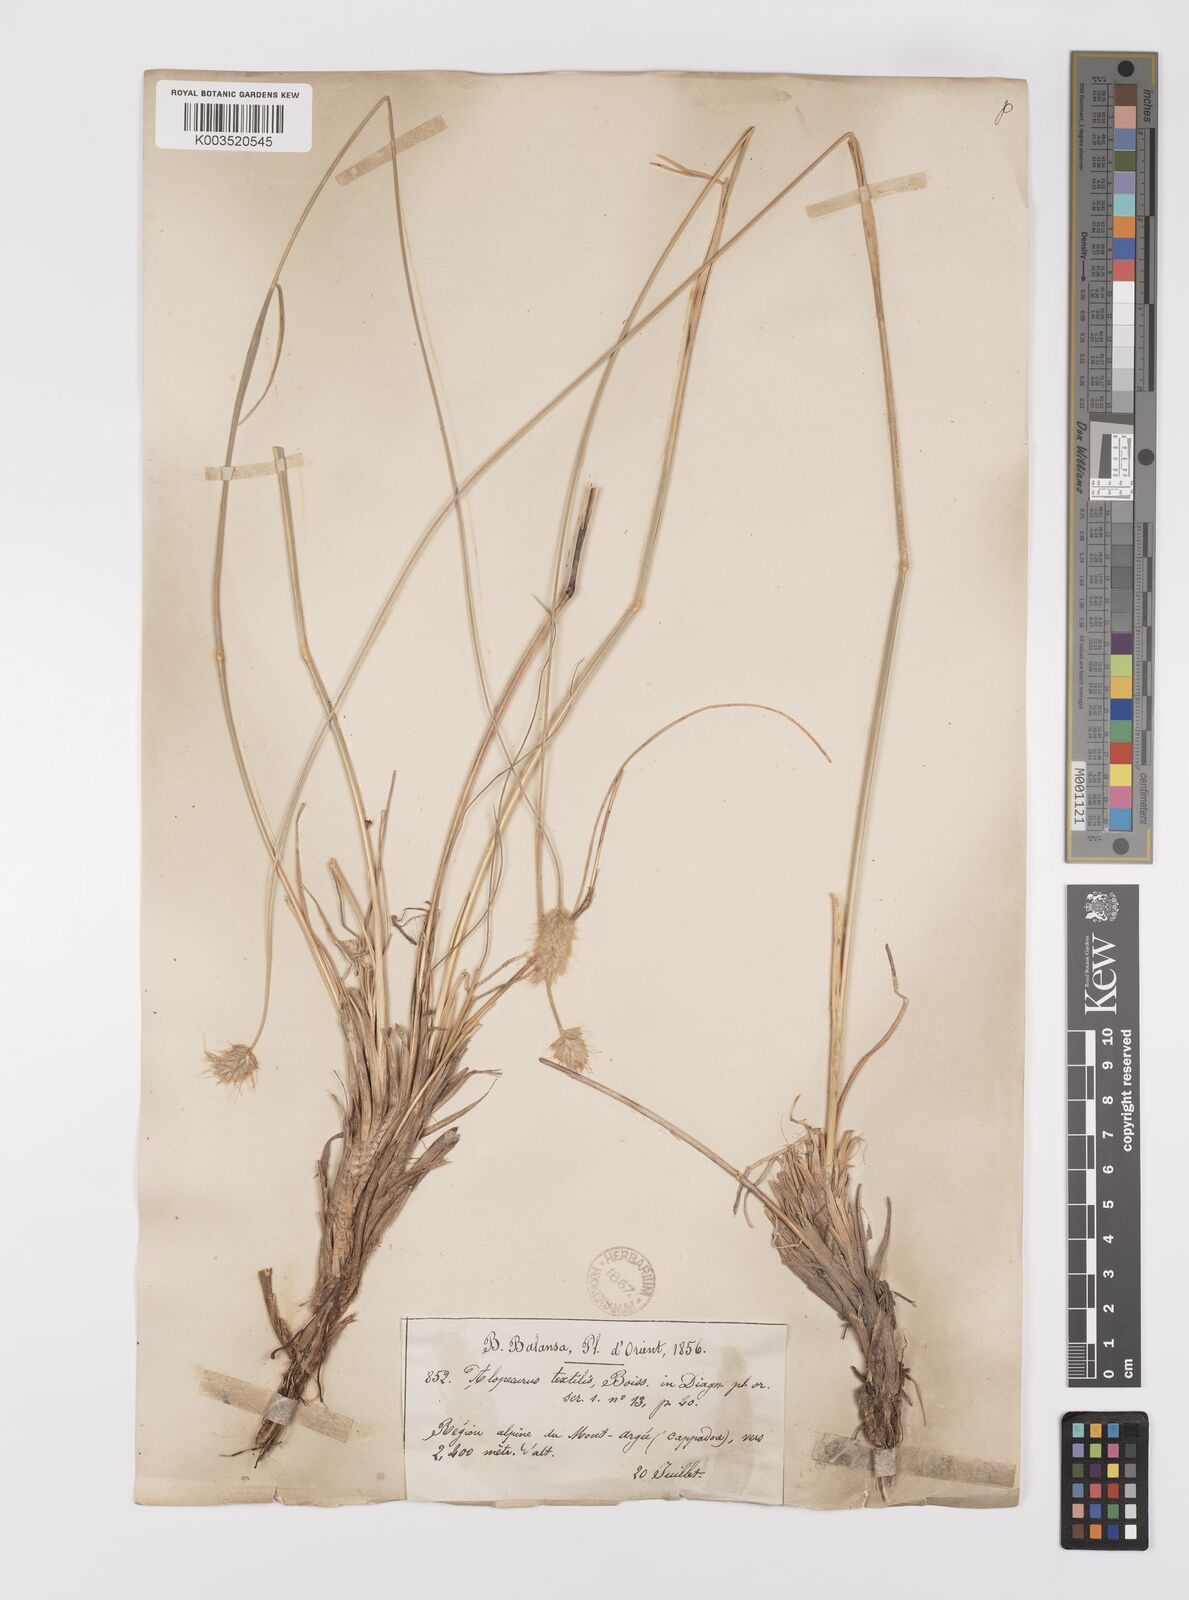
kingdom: Plantae
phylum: Tracheophyta
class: Liliopsida
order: Poales
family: Poaceae
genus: Alopecurus
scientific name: Alopecurus textilis
